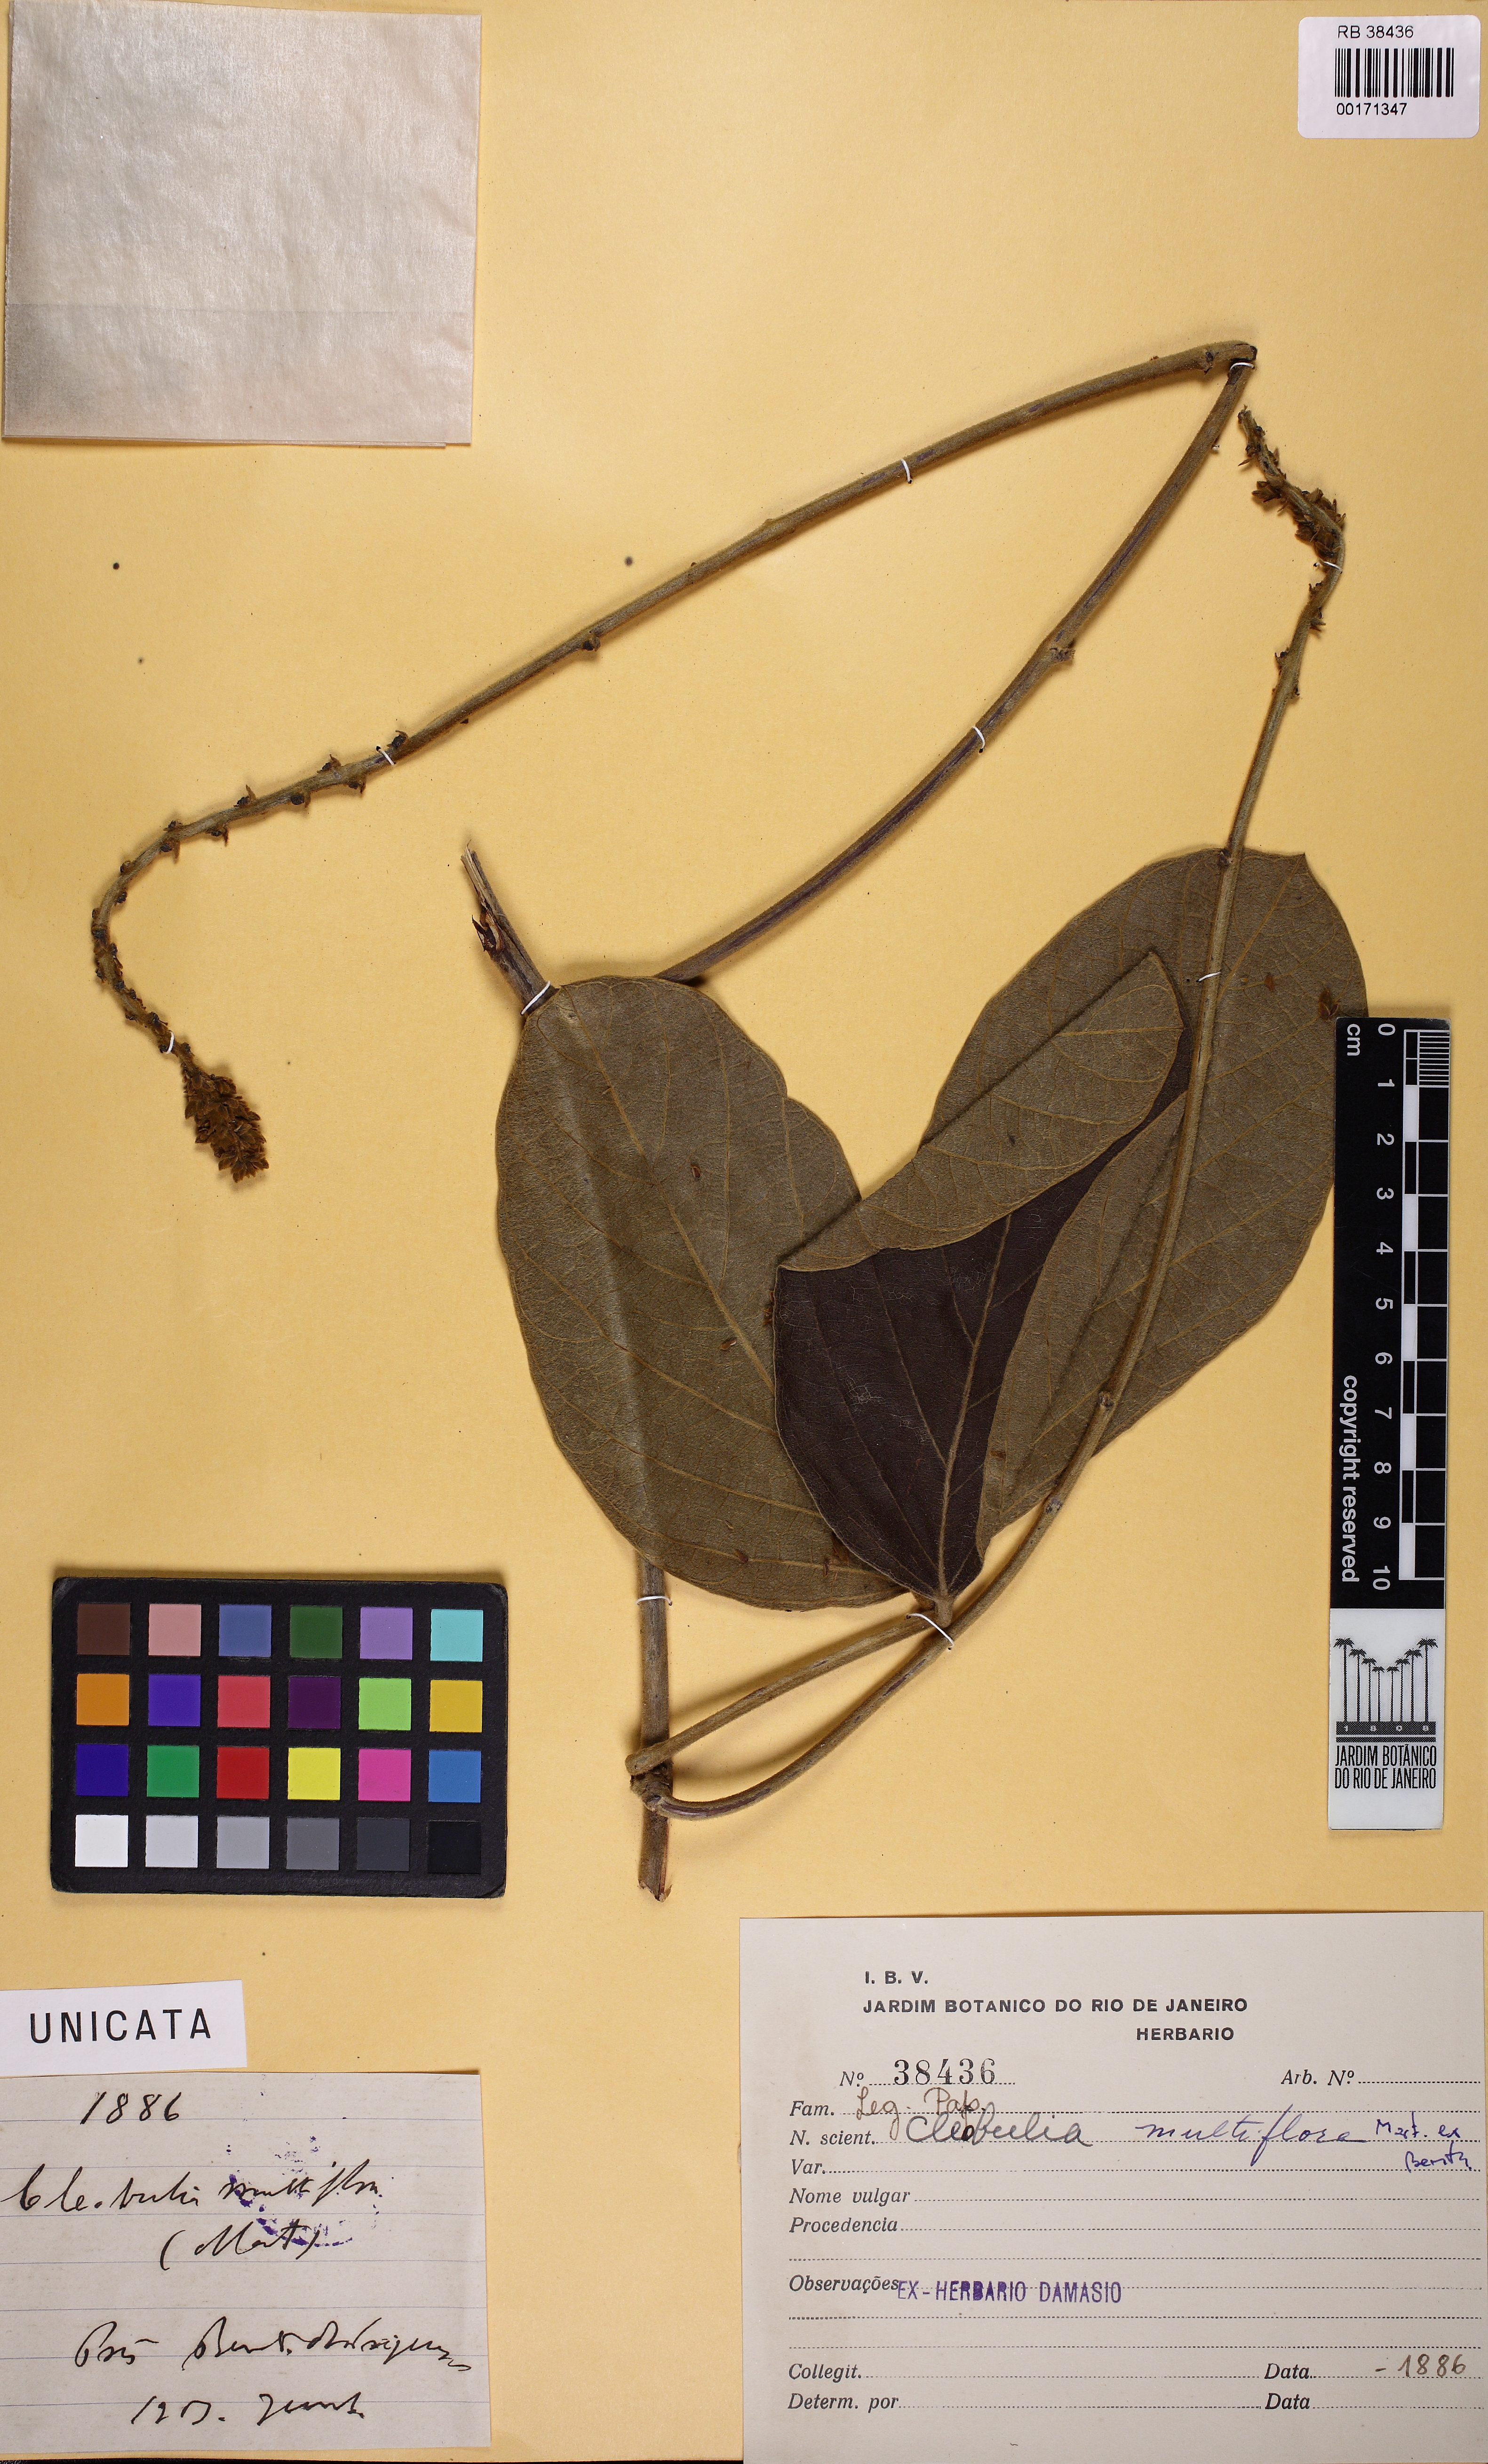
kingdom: Plantae
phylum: Tracheophyta
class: Magnoliopsida
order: Fabales
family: Fabaceae
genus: Cleobulia
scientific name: Cleobulia coccinea
